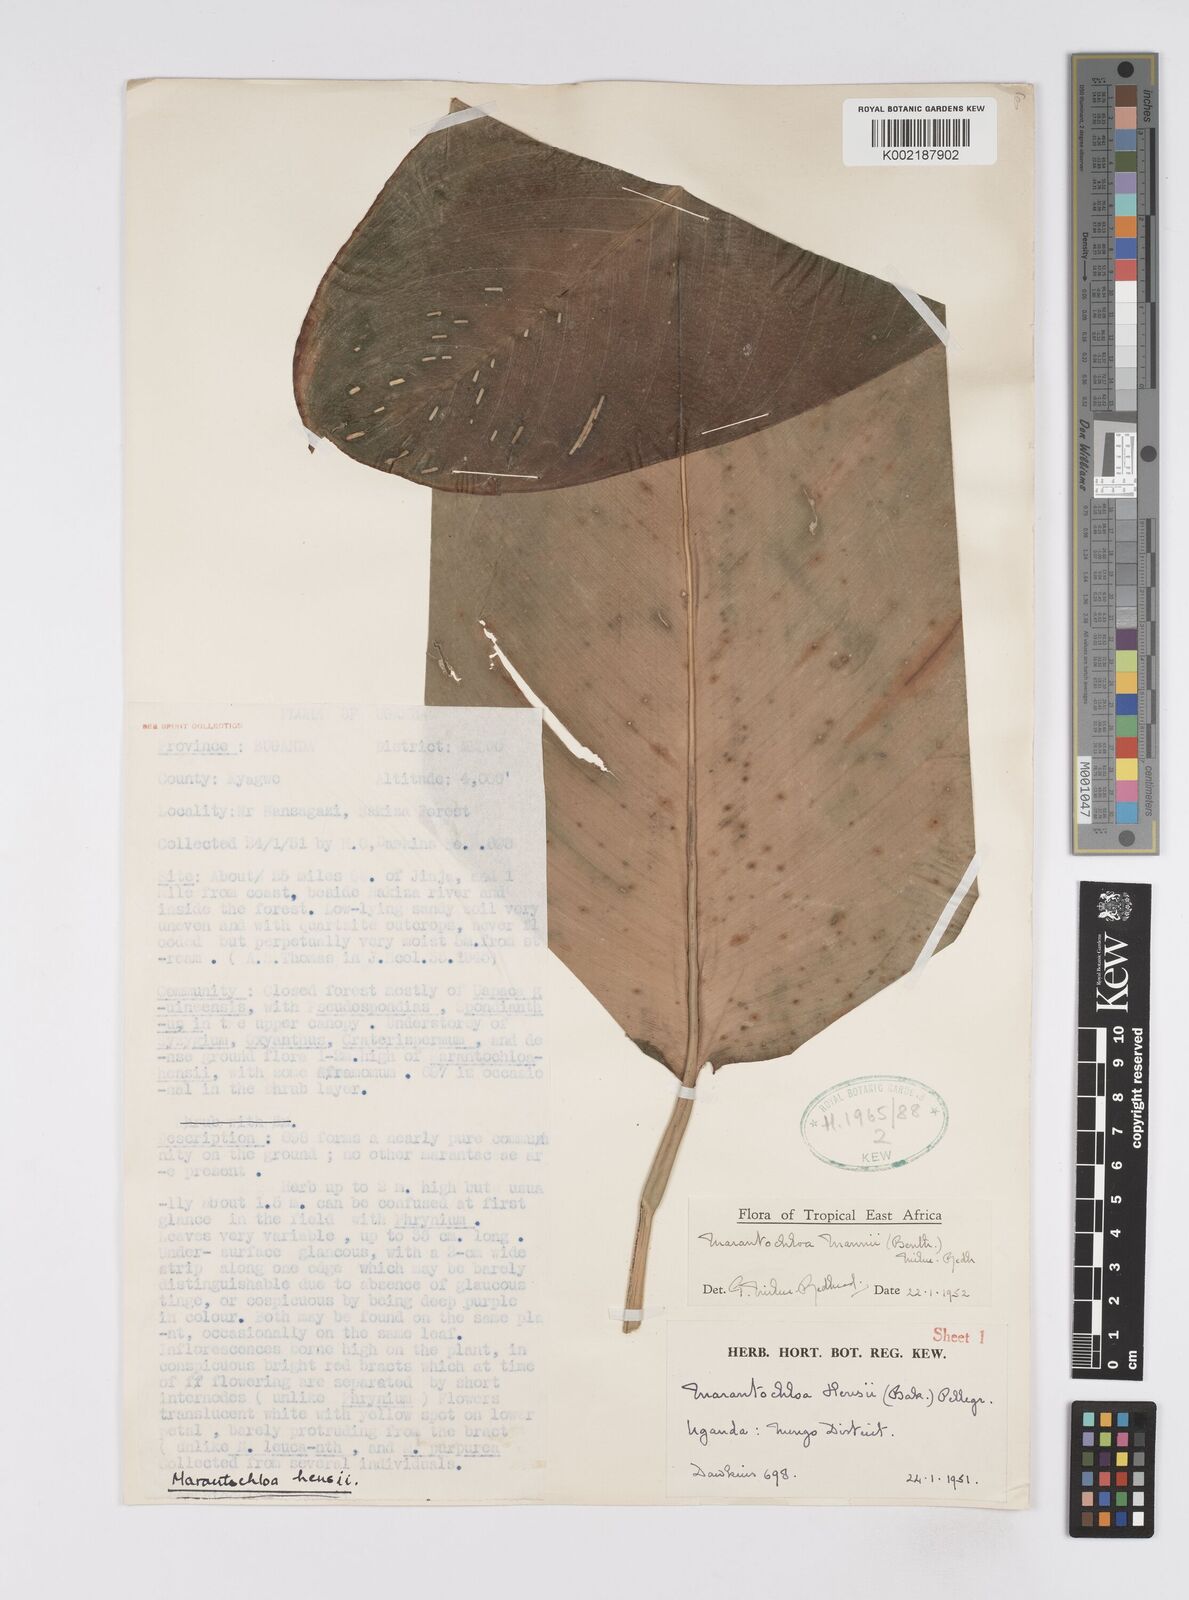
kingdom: Plantae
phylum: Tracheophyta
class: Liliopsida
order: Zingiberales
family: Marantaceae
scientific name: Marantaceae
